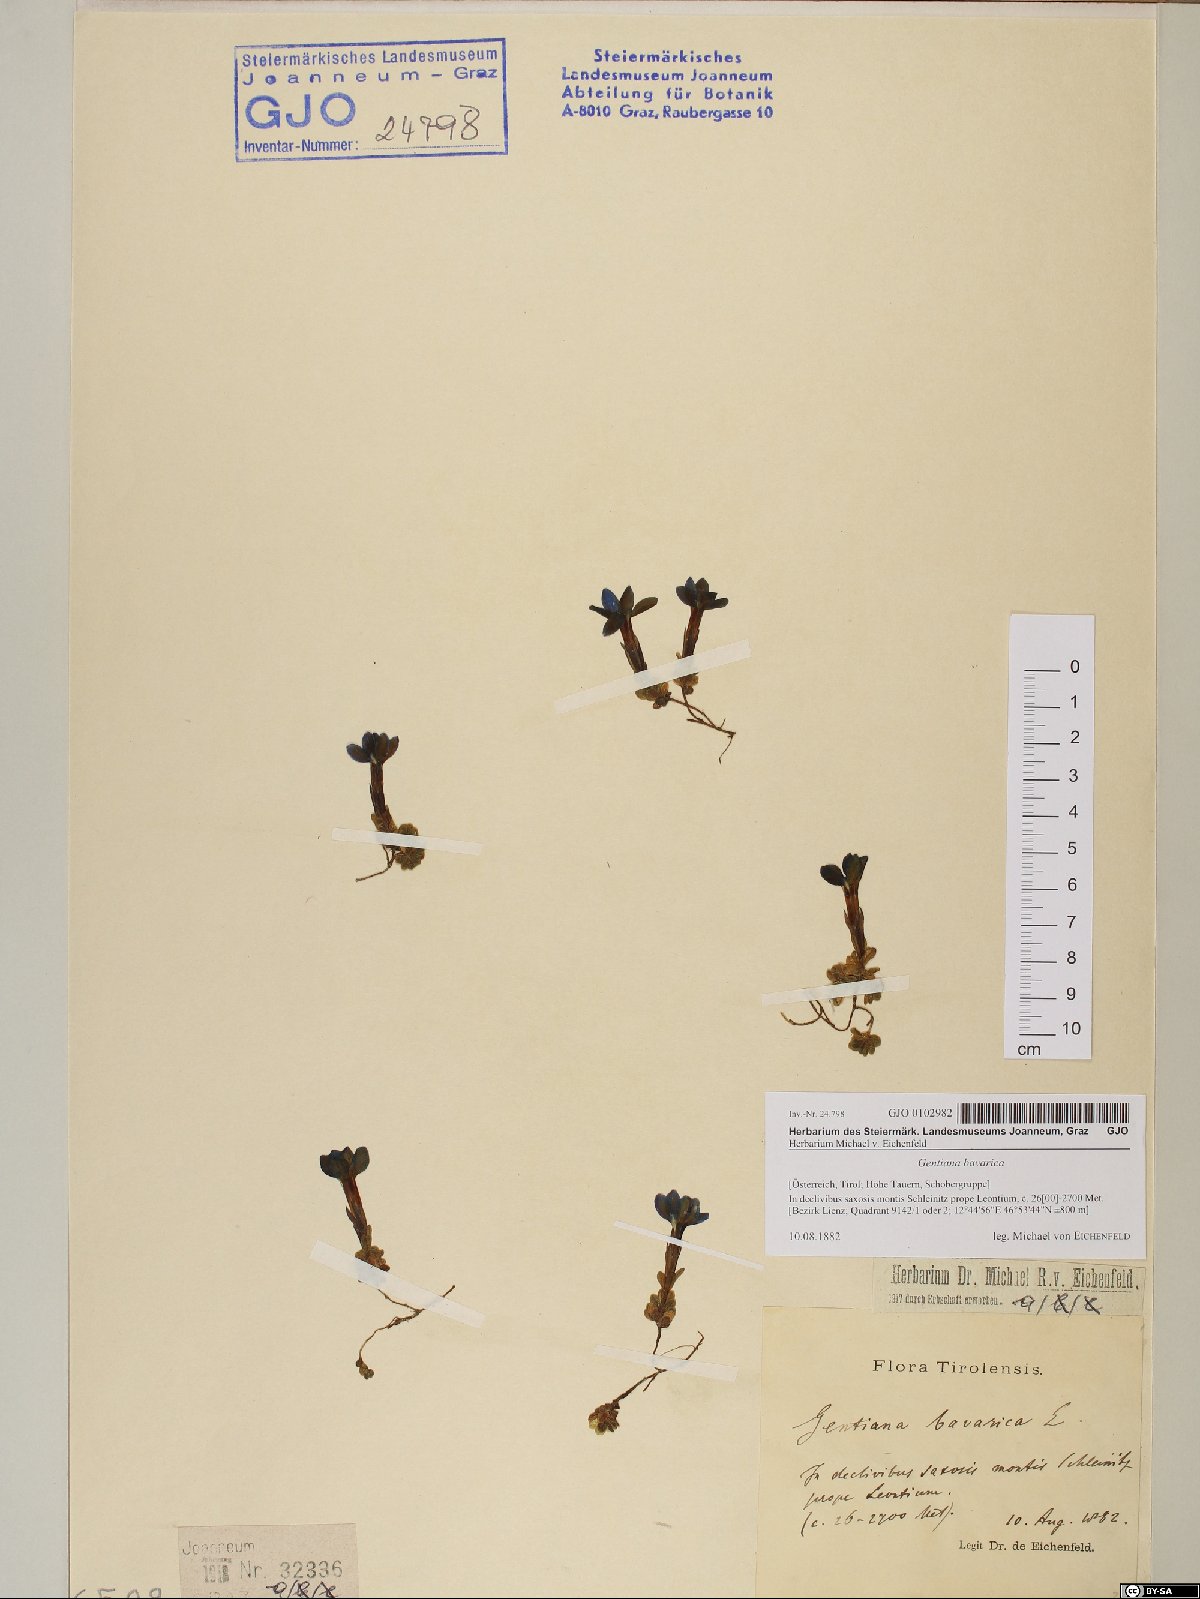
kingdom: Plantae
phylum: Tracheophyta
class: Magnoliopsida
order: Gentianales
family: Gentianaceae
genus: Gentiana
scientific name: Gentiana bavarica
